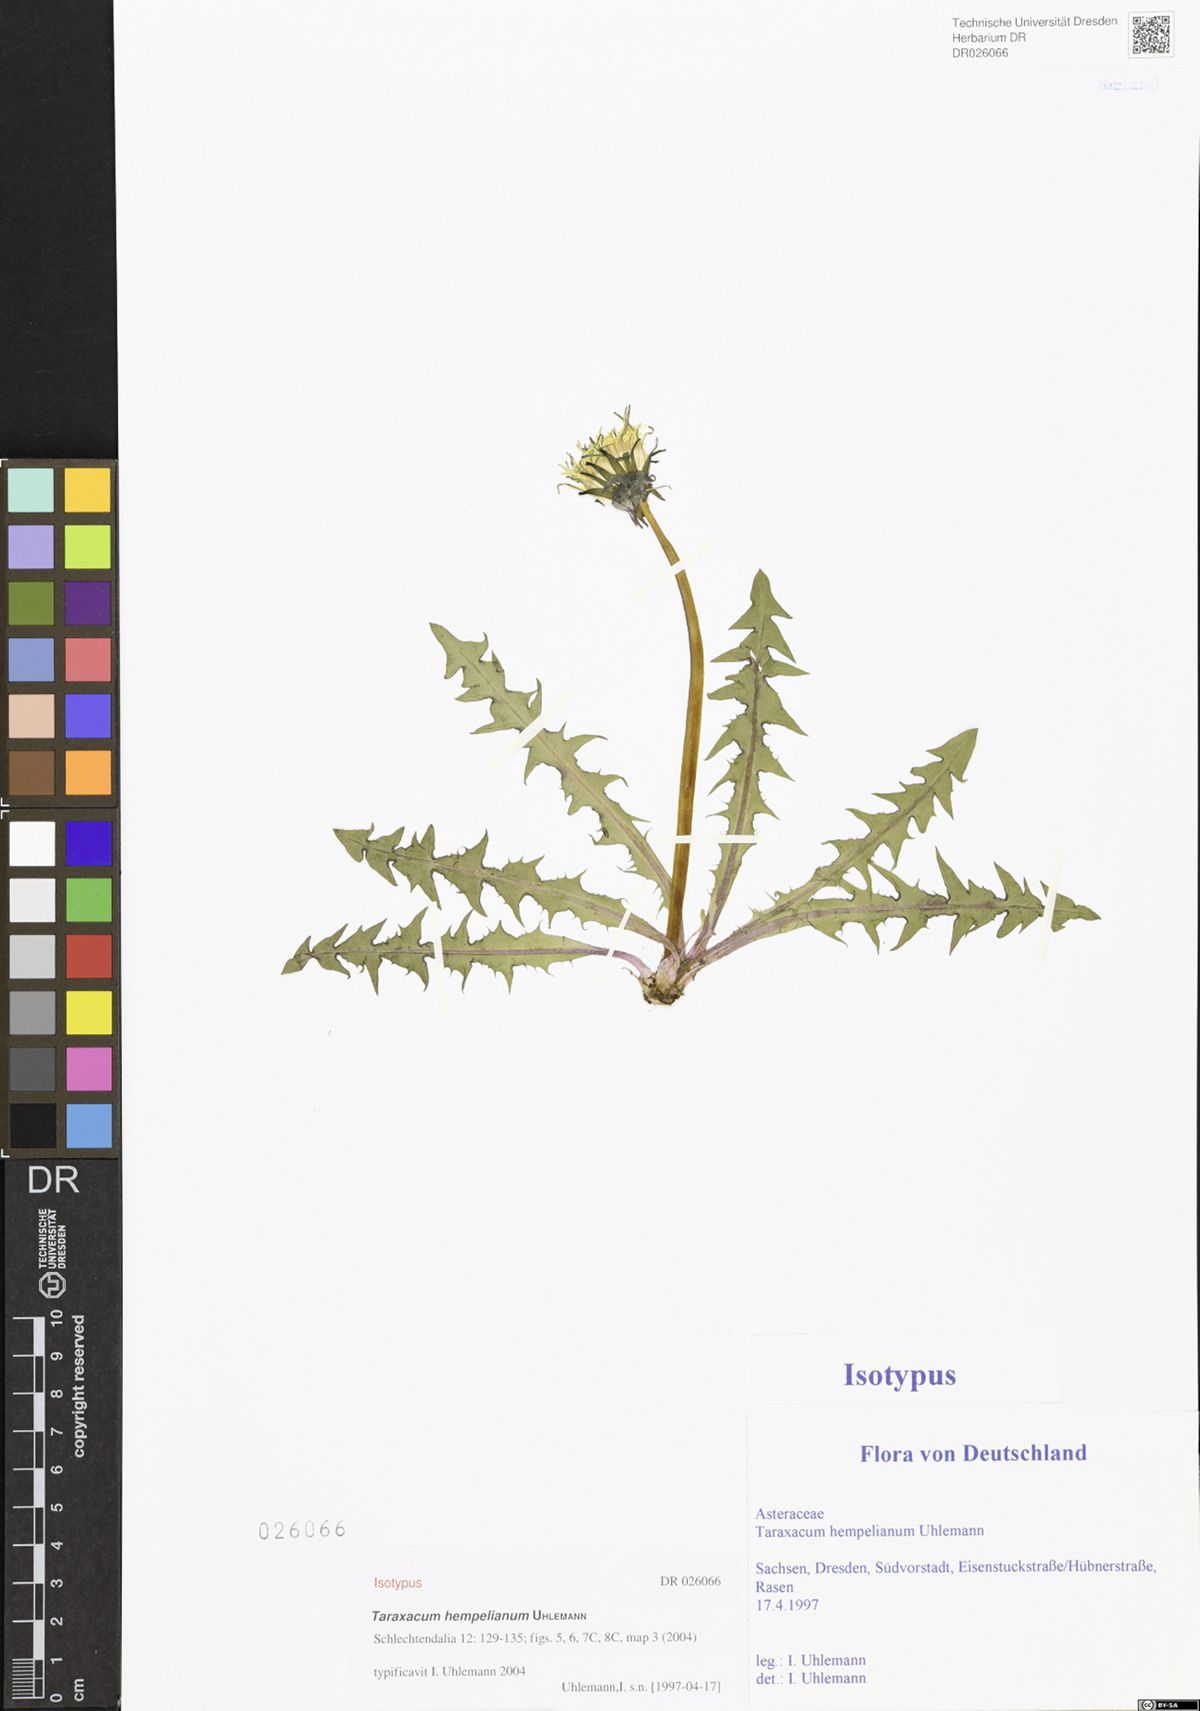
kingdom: Plantae
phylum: Tracheophyta
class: Magnoliopsida
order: Asterales
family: Asteraceae
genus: Taraxacum
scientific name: Taraxacum hempelianum
